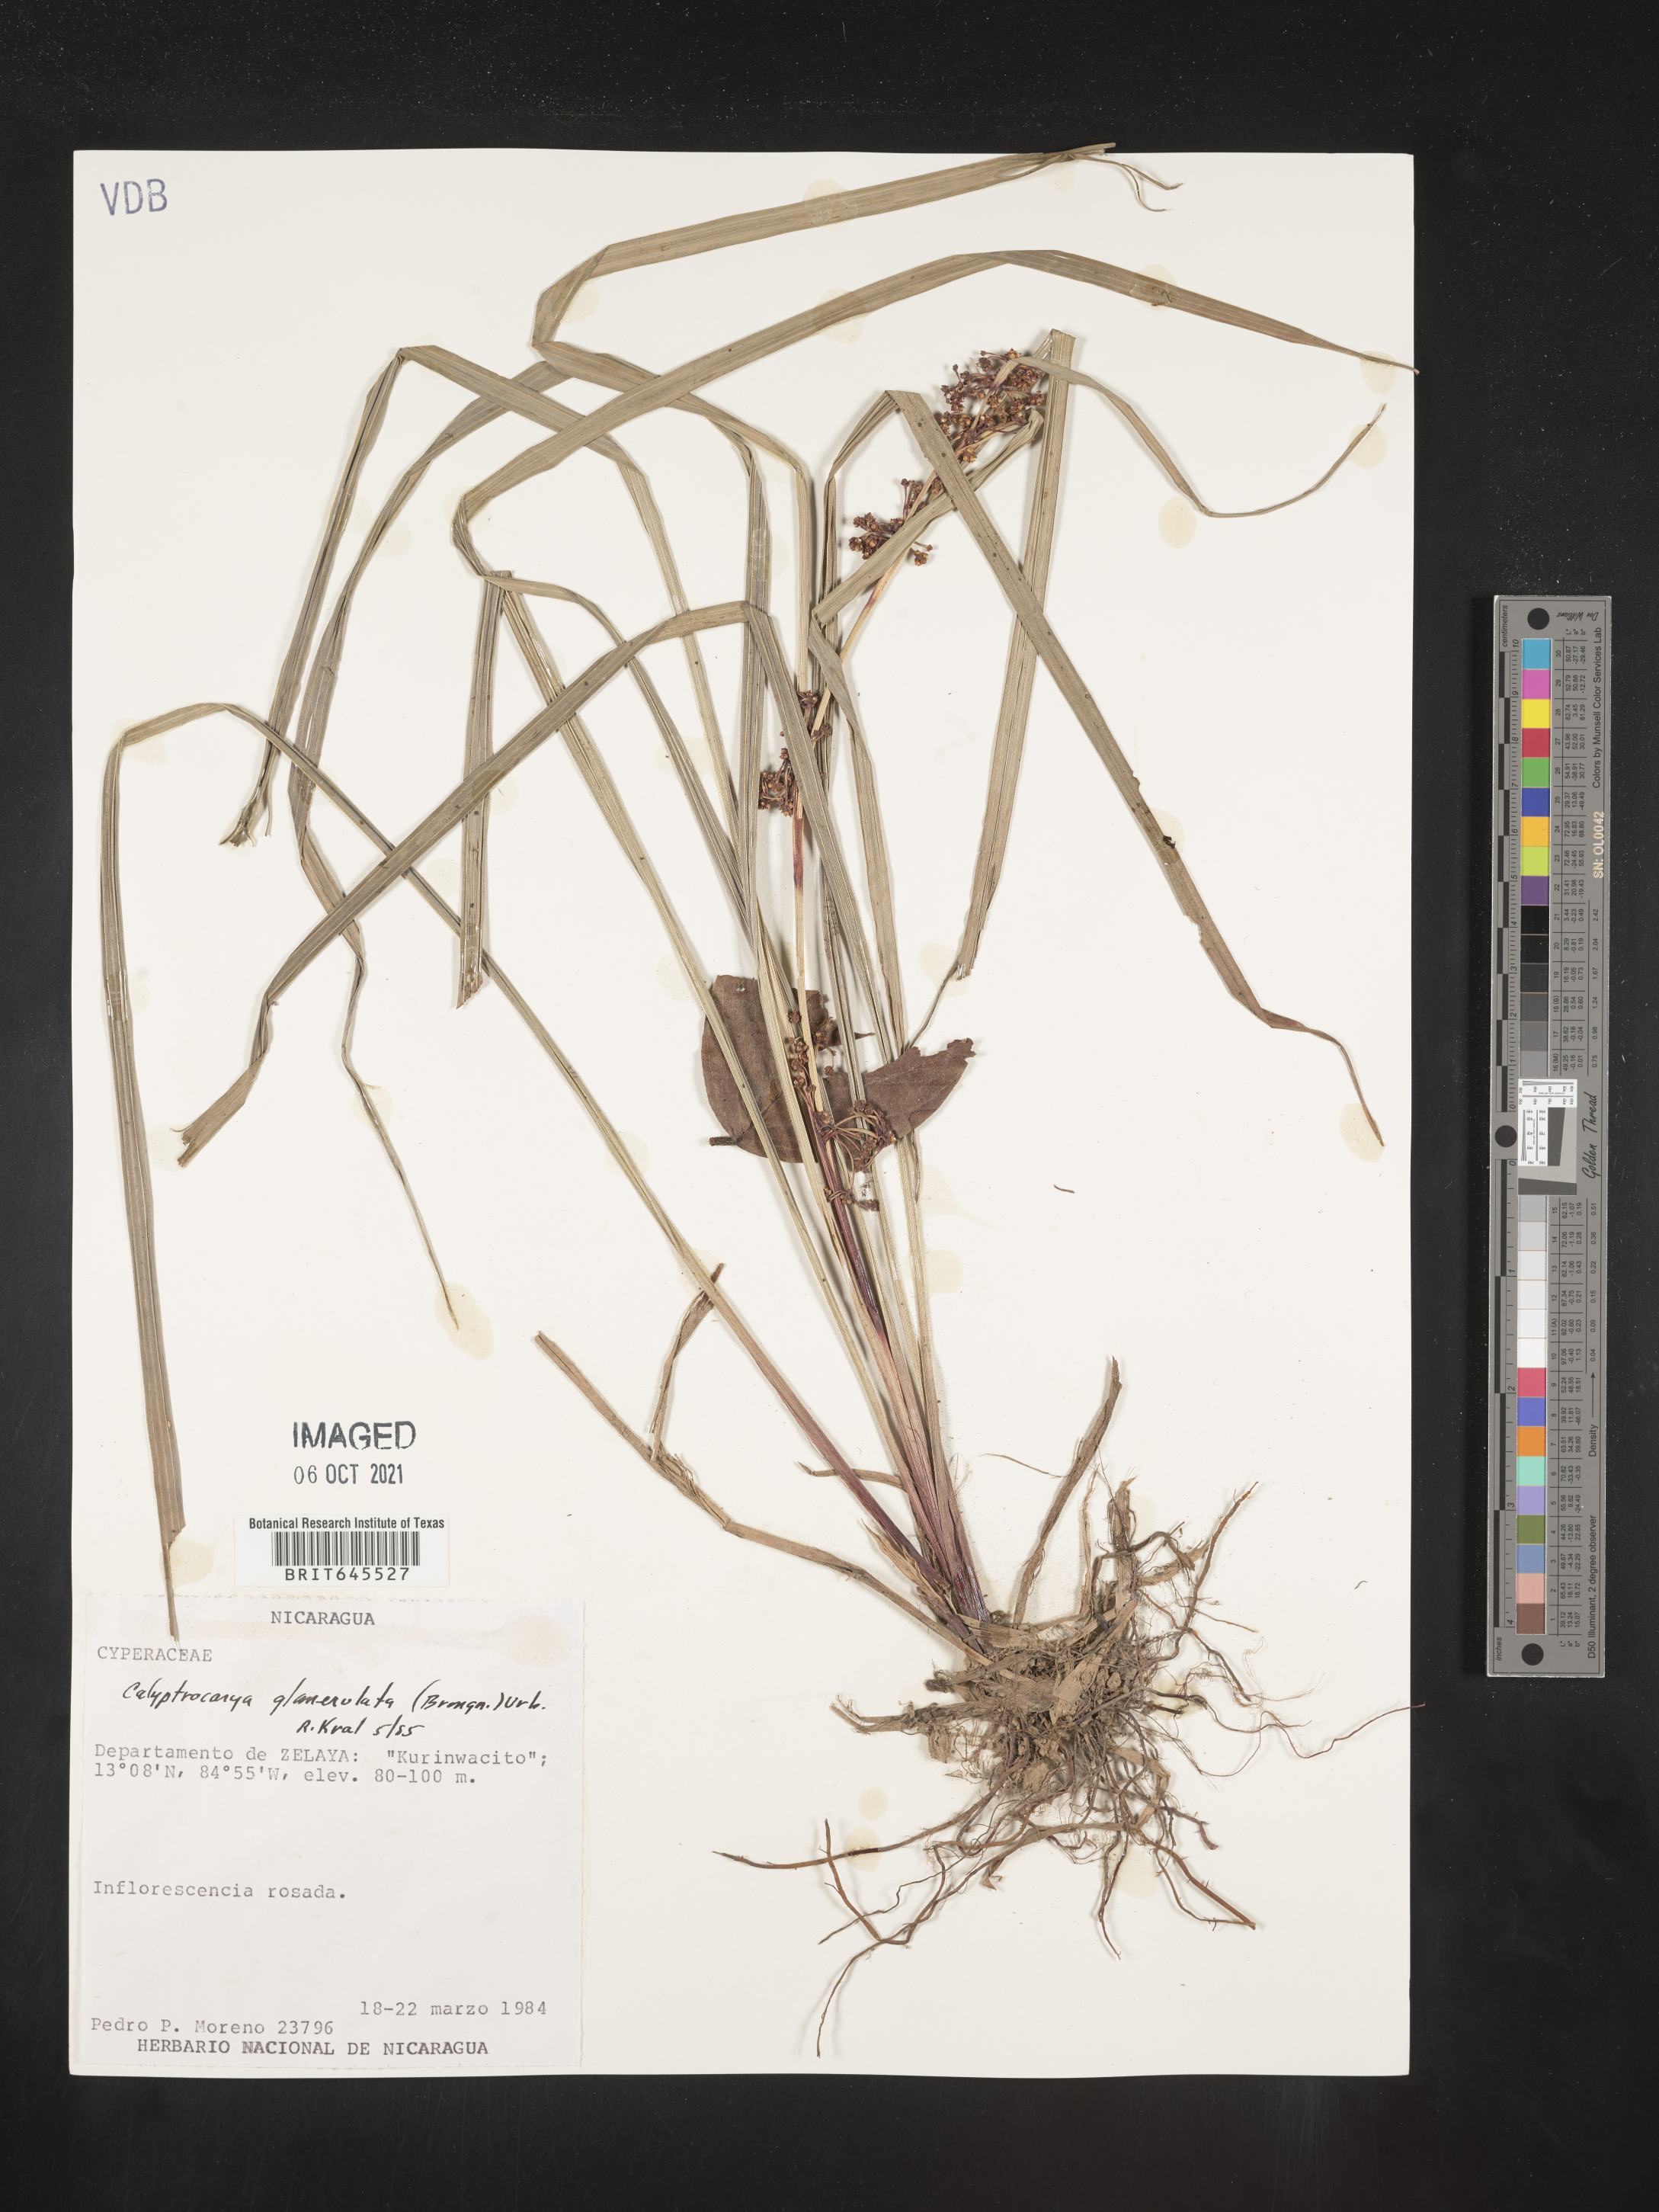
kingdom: Plantae
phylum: Tracheophyta
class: Liliopsida
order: Poales
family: Cyperaceae
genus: Calyptrocarya
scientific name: Calyptrocarya glomerulata
